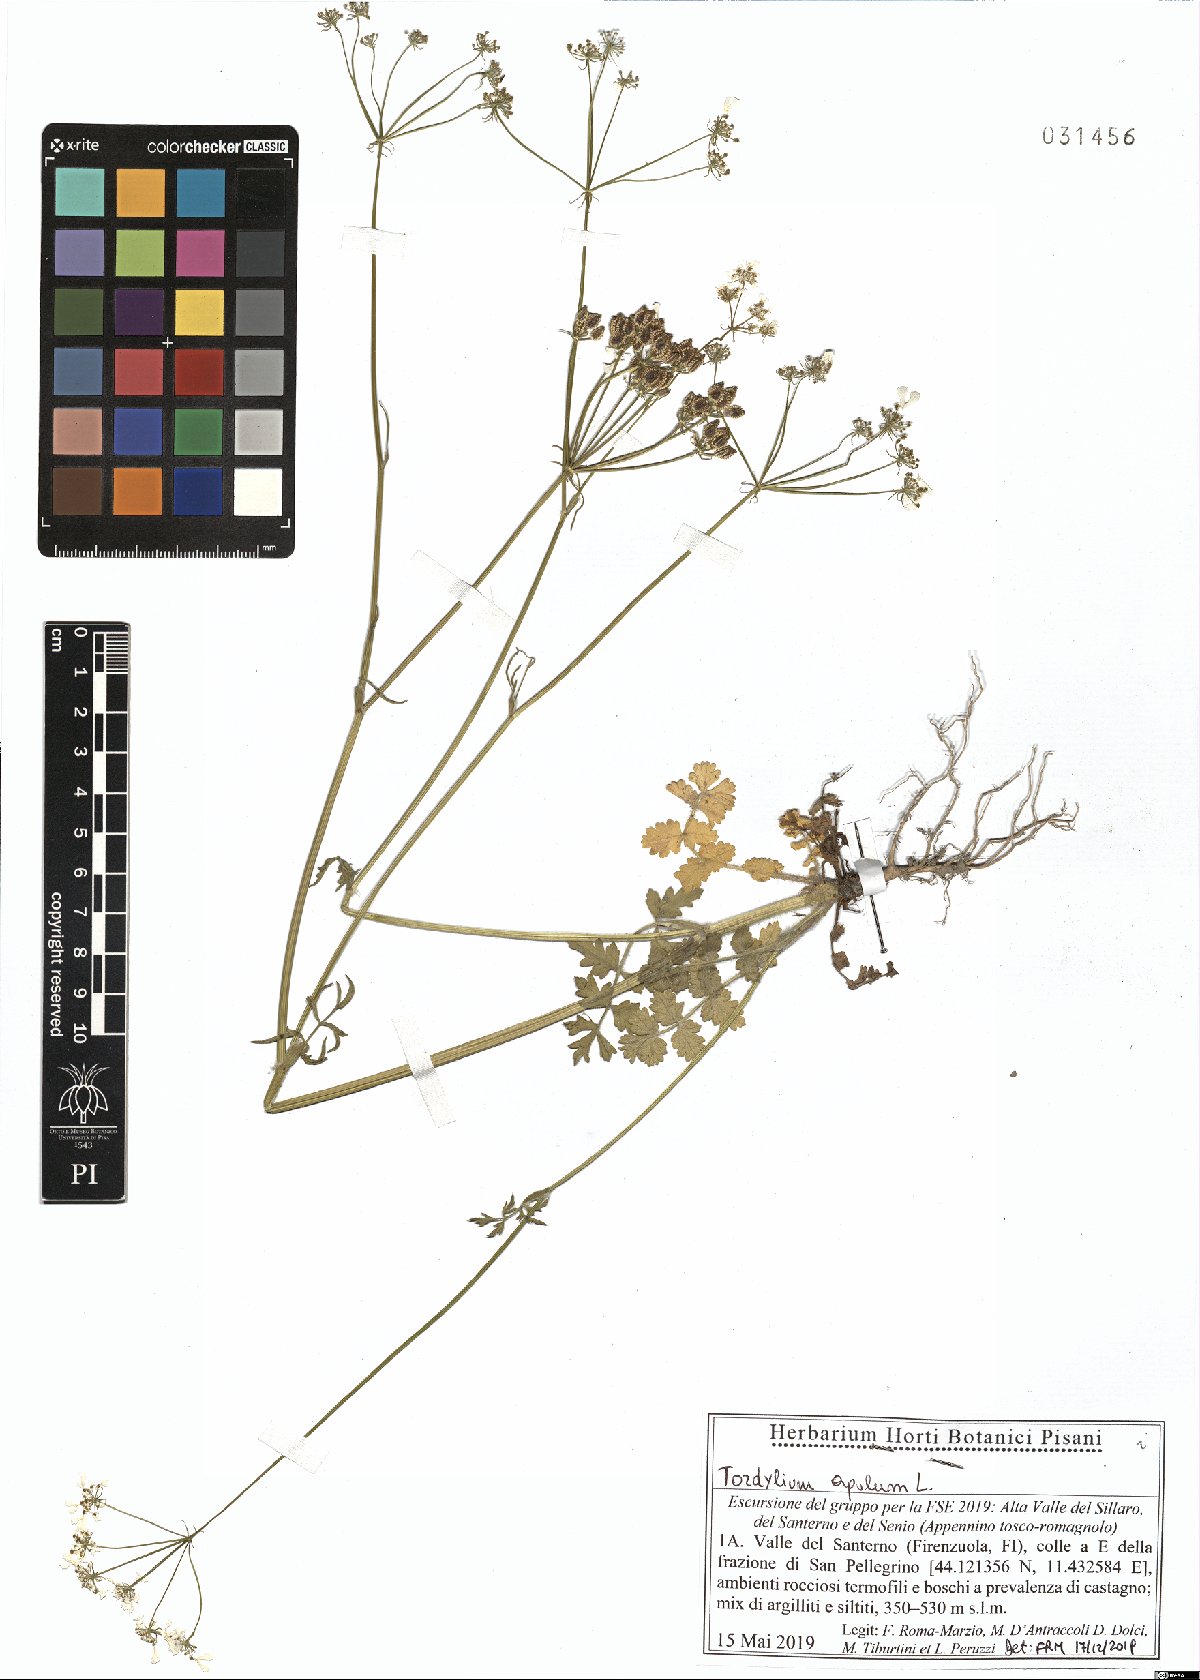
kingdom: Plantae
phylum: Tracheophyta
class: Magnoliopsida
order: Apiales
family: Apiaceae
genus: Tordylium
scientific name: Tordylium apulum
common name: Mediterranean hartwort
